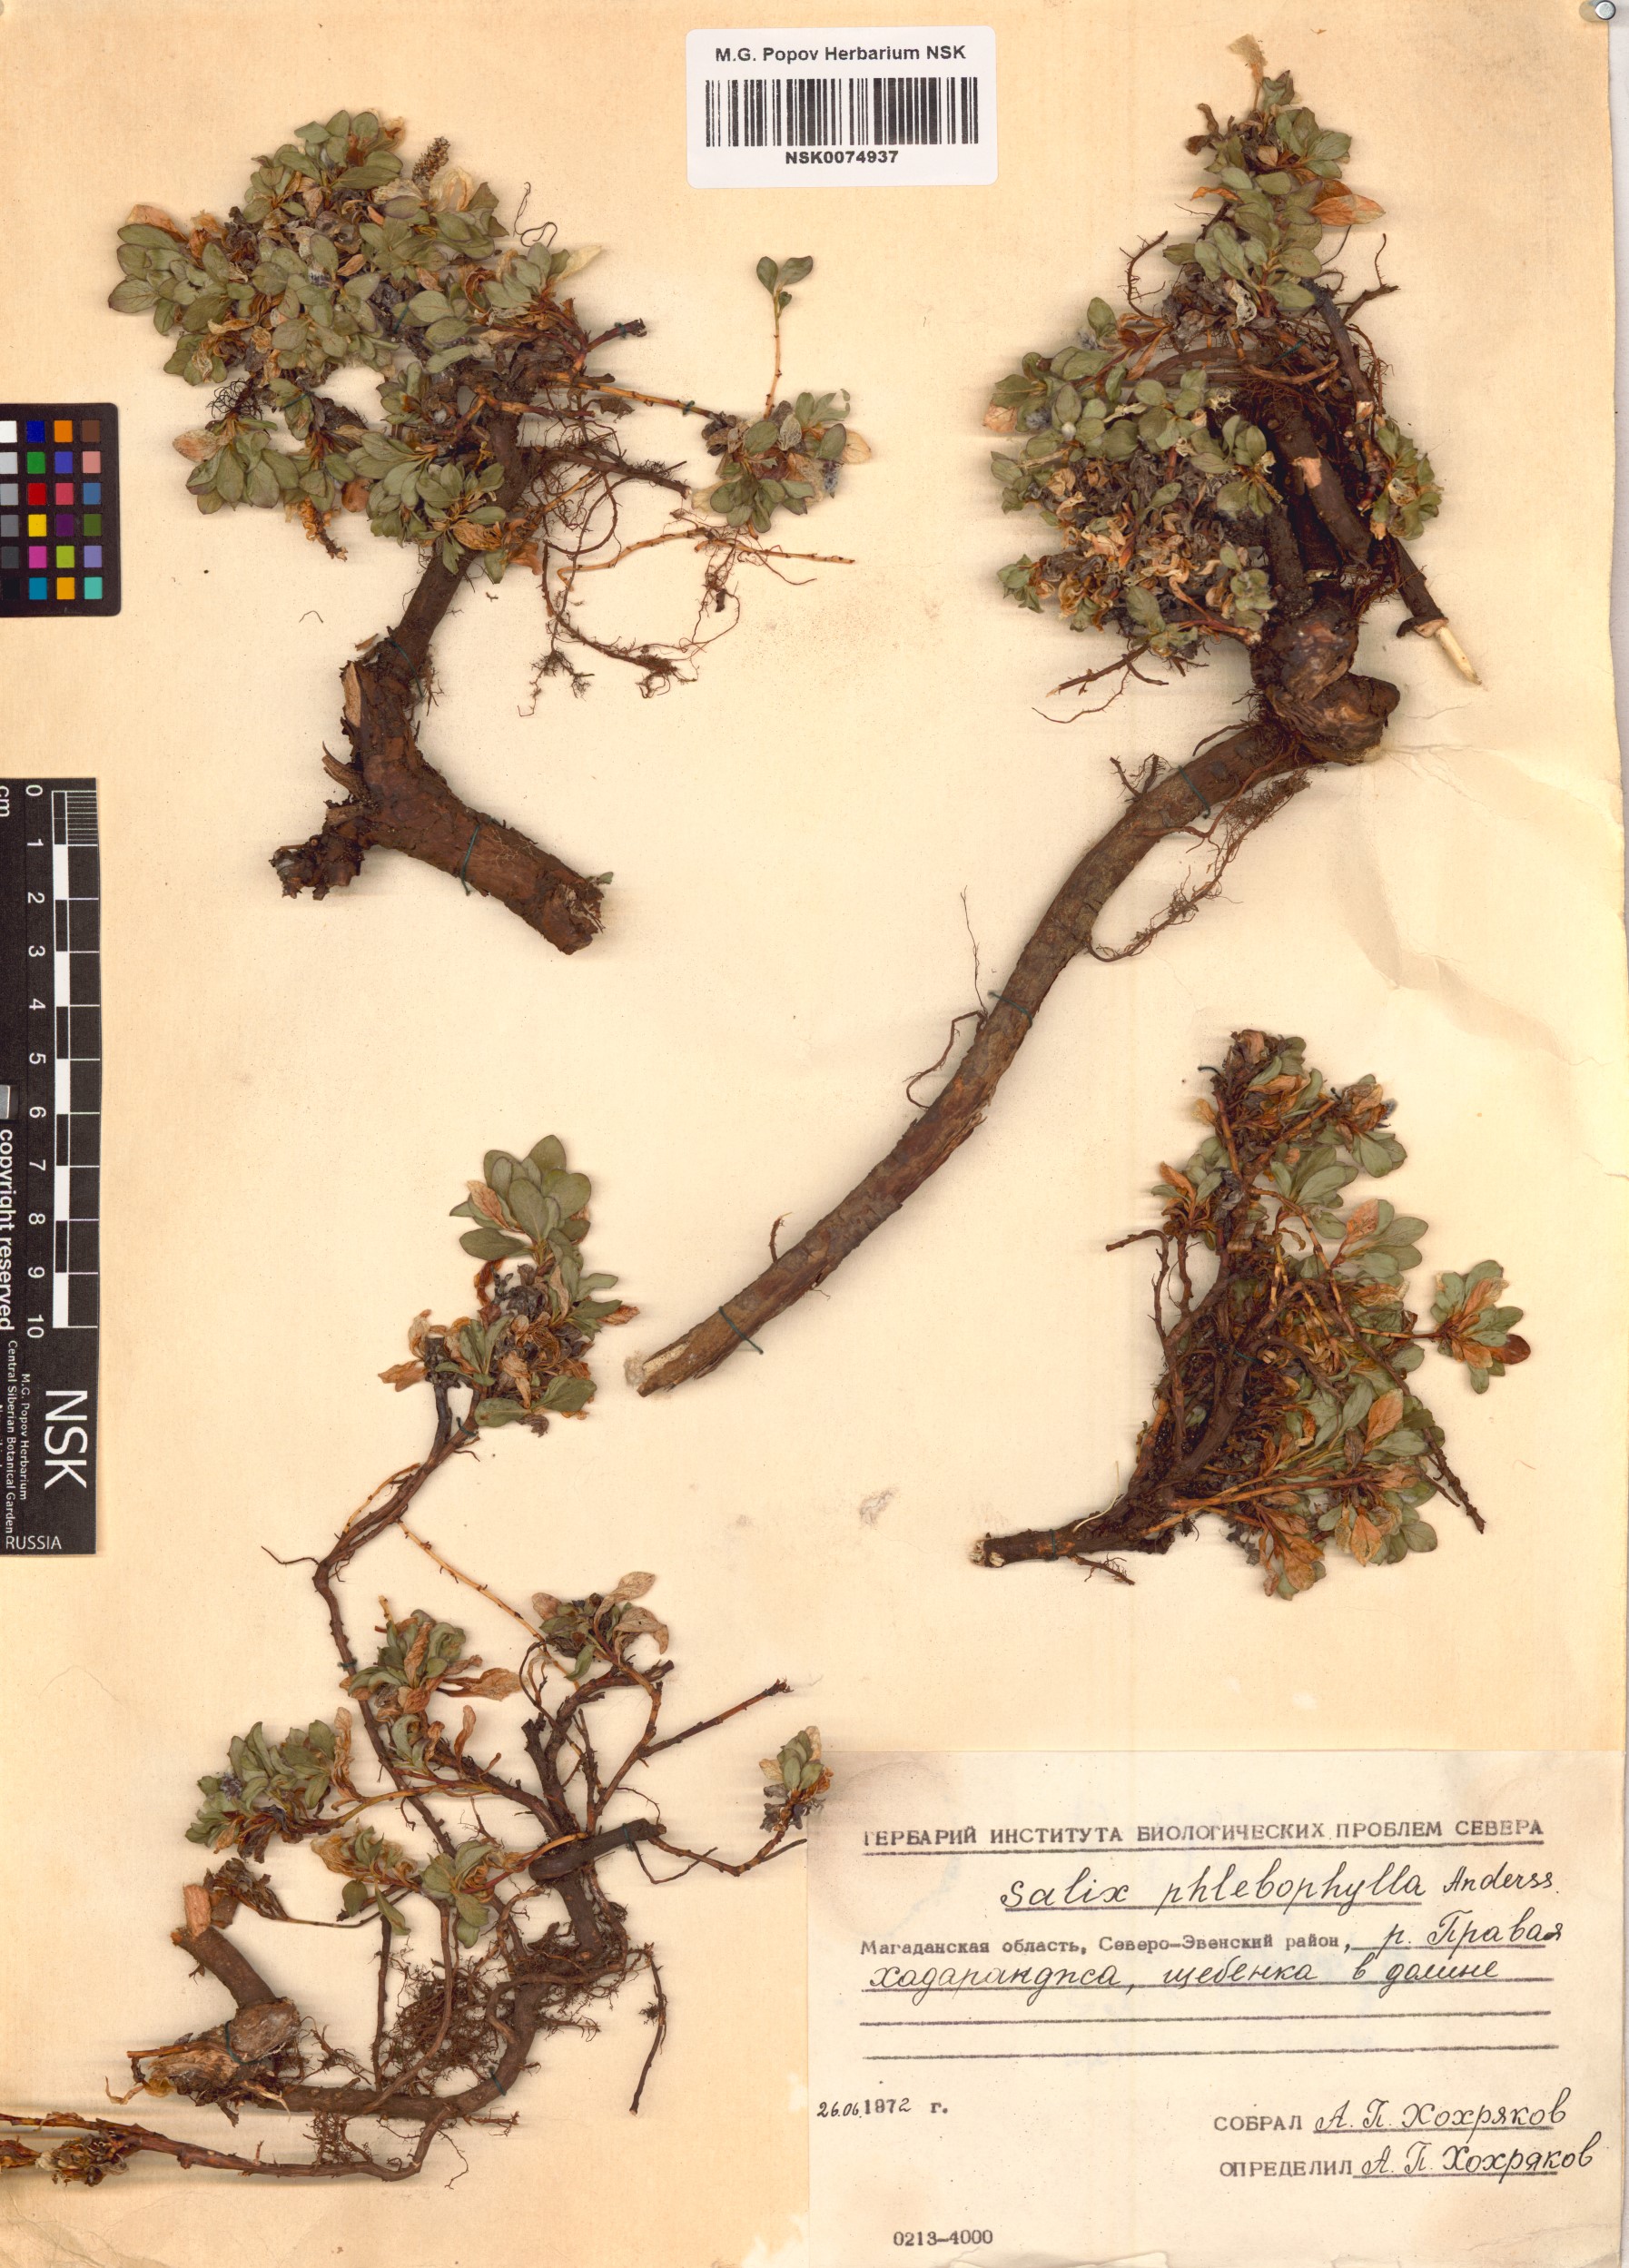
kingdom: Plantae
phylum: Tracheophyta
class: Magnoliopsida
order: Malpighiales
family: Salicaceae
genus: Salix
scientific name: Salix phlebophylla
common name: Skeleton-leaved willow
